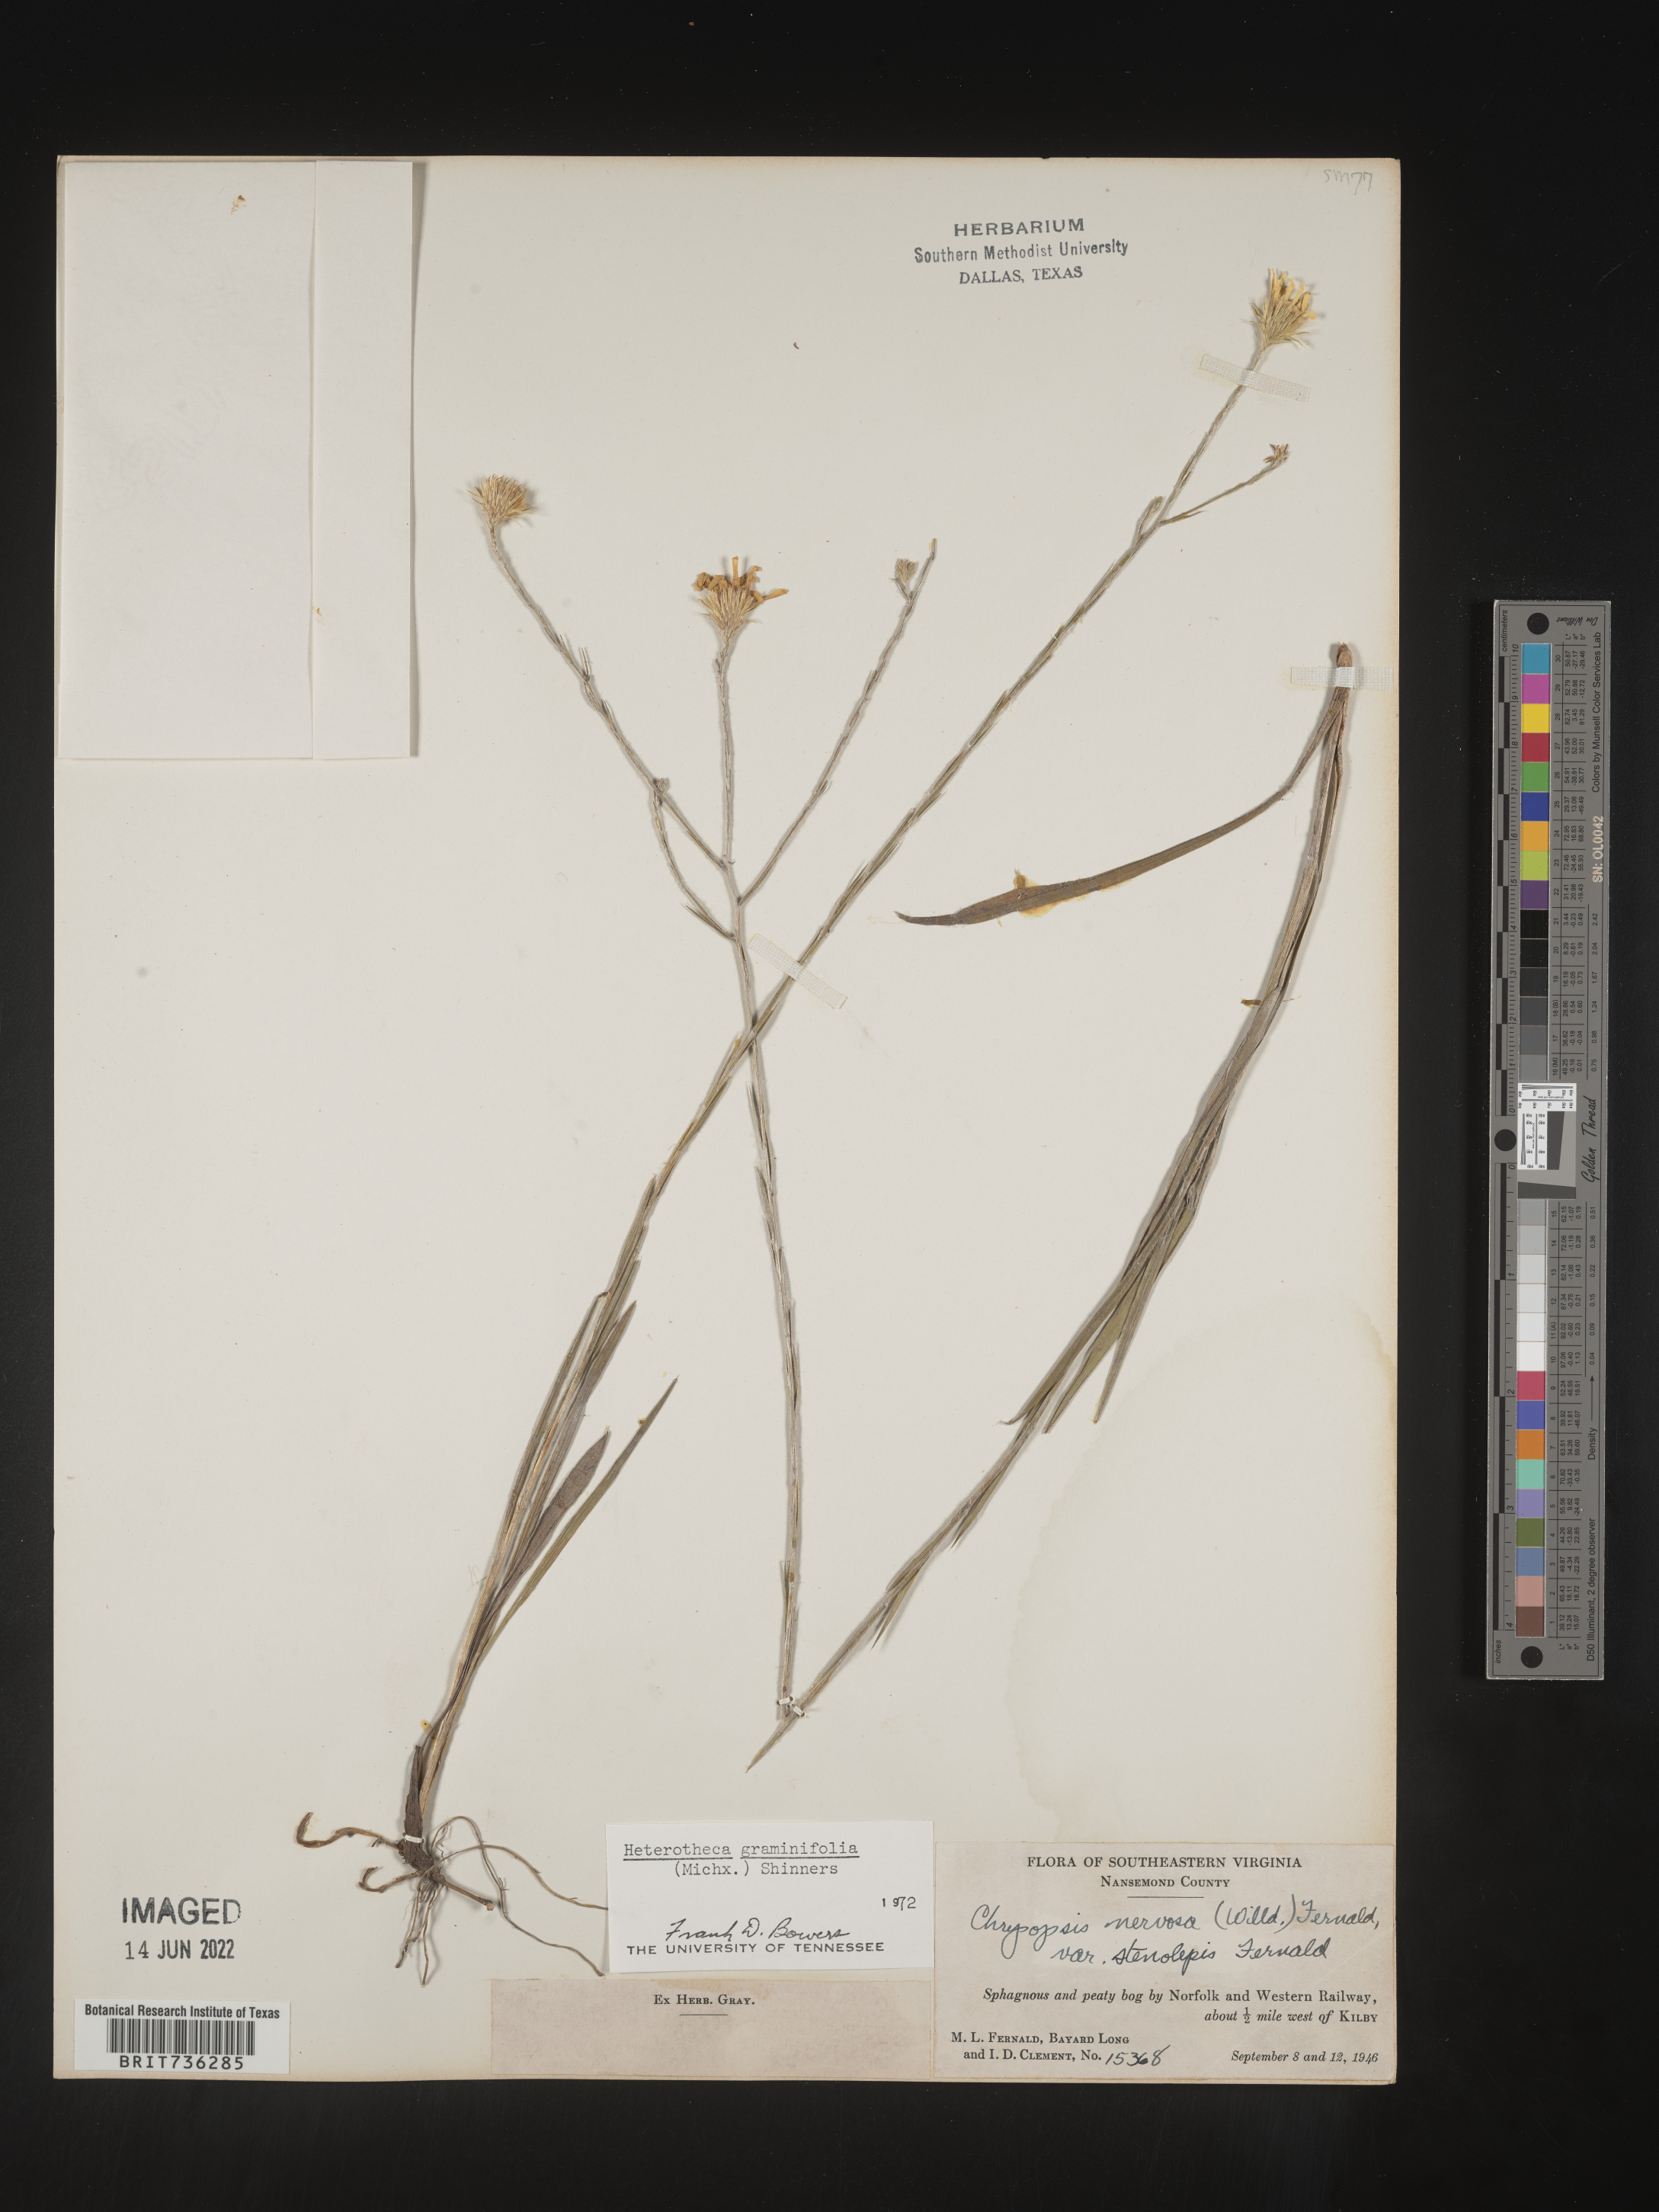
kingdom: Plantae
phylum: Tracheophyta
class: Magnoliopsida
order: Asterales
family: Asteraceae
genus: Pityopsis
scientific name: Pityopsis graminifolia
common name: Grass-leaf golden-aster
